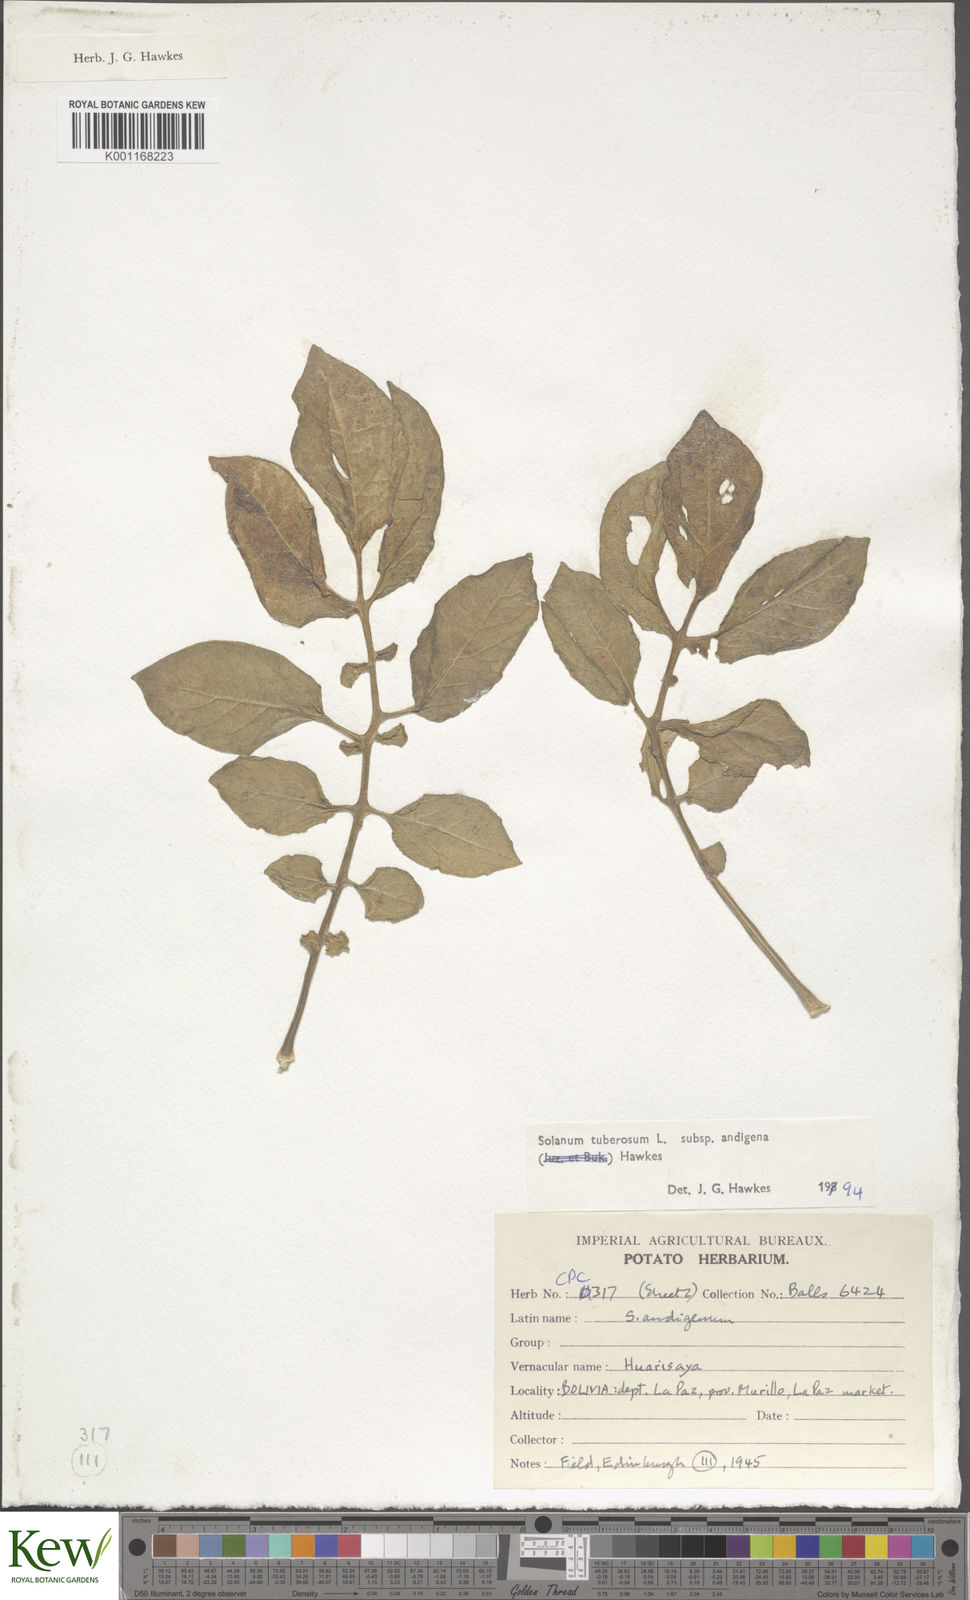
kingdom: Plantae
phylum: Tracheophyta
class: Magnoliopsida
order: Solanales
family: Solanaceae
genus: Solanum
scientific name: Solanum tuberosum
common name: Potato
